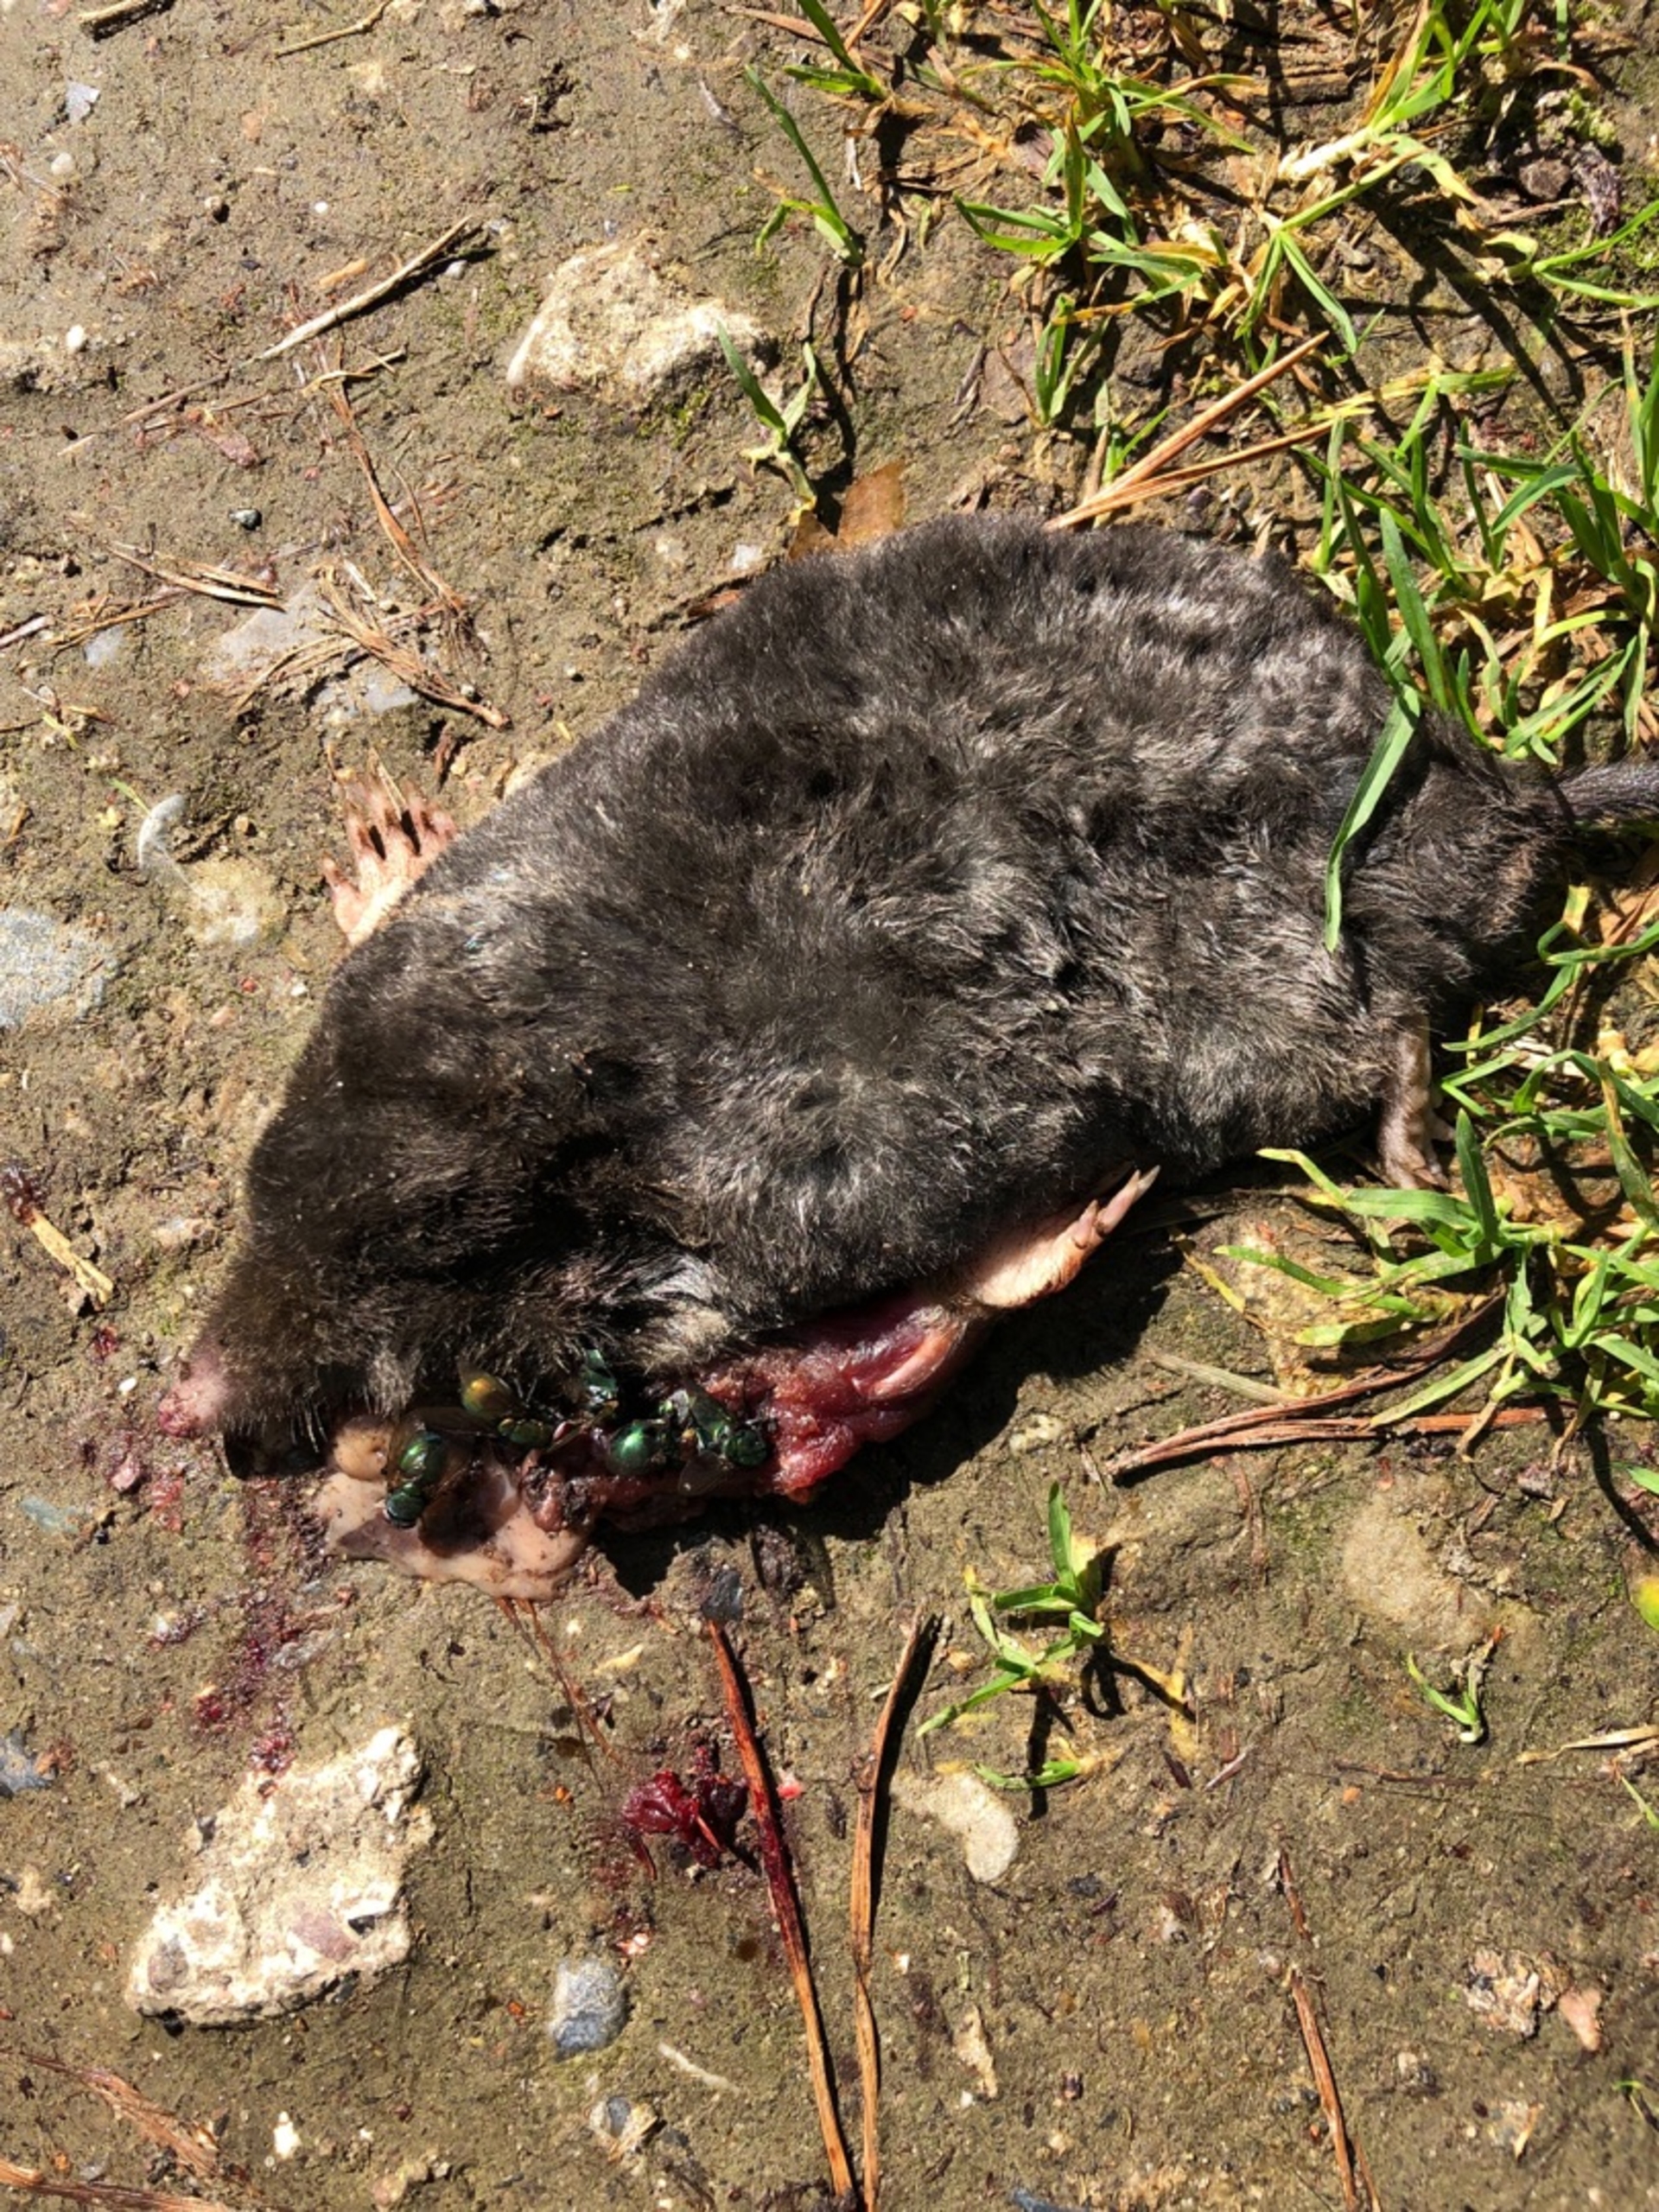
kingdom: Animalia
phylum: Chordata
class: Mammalia
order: Soricomorpha
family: Talpidae
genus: Talpa
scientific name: Talpa europaea
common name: Muldvarp
